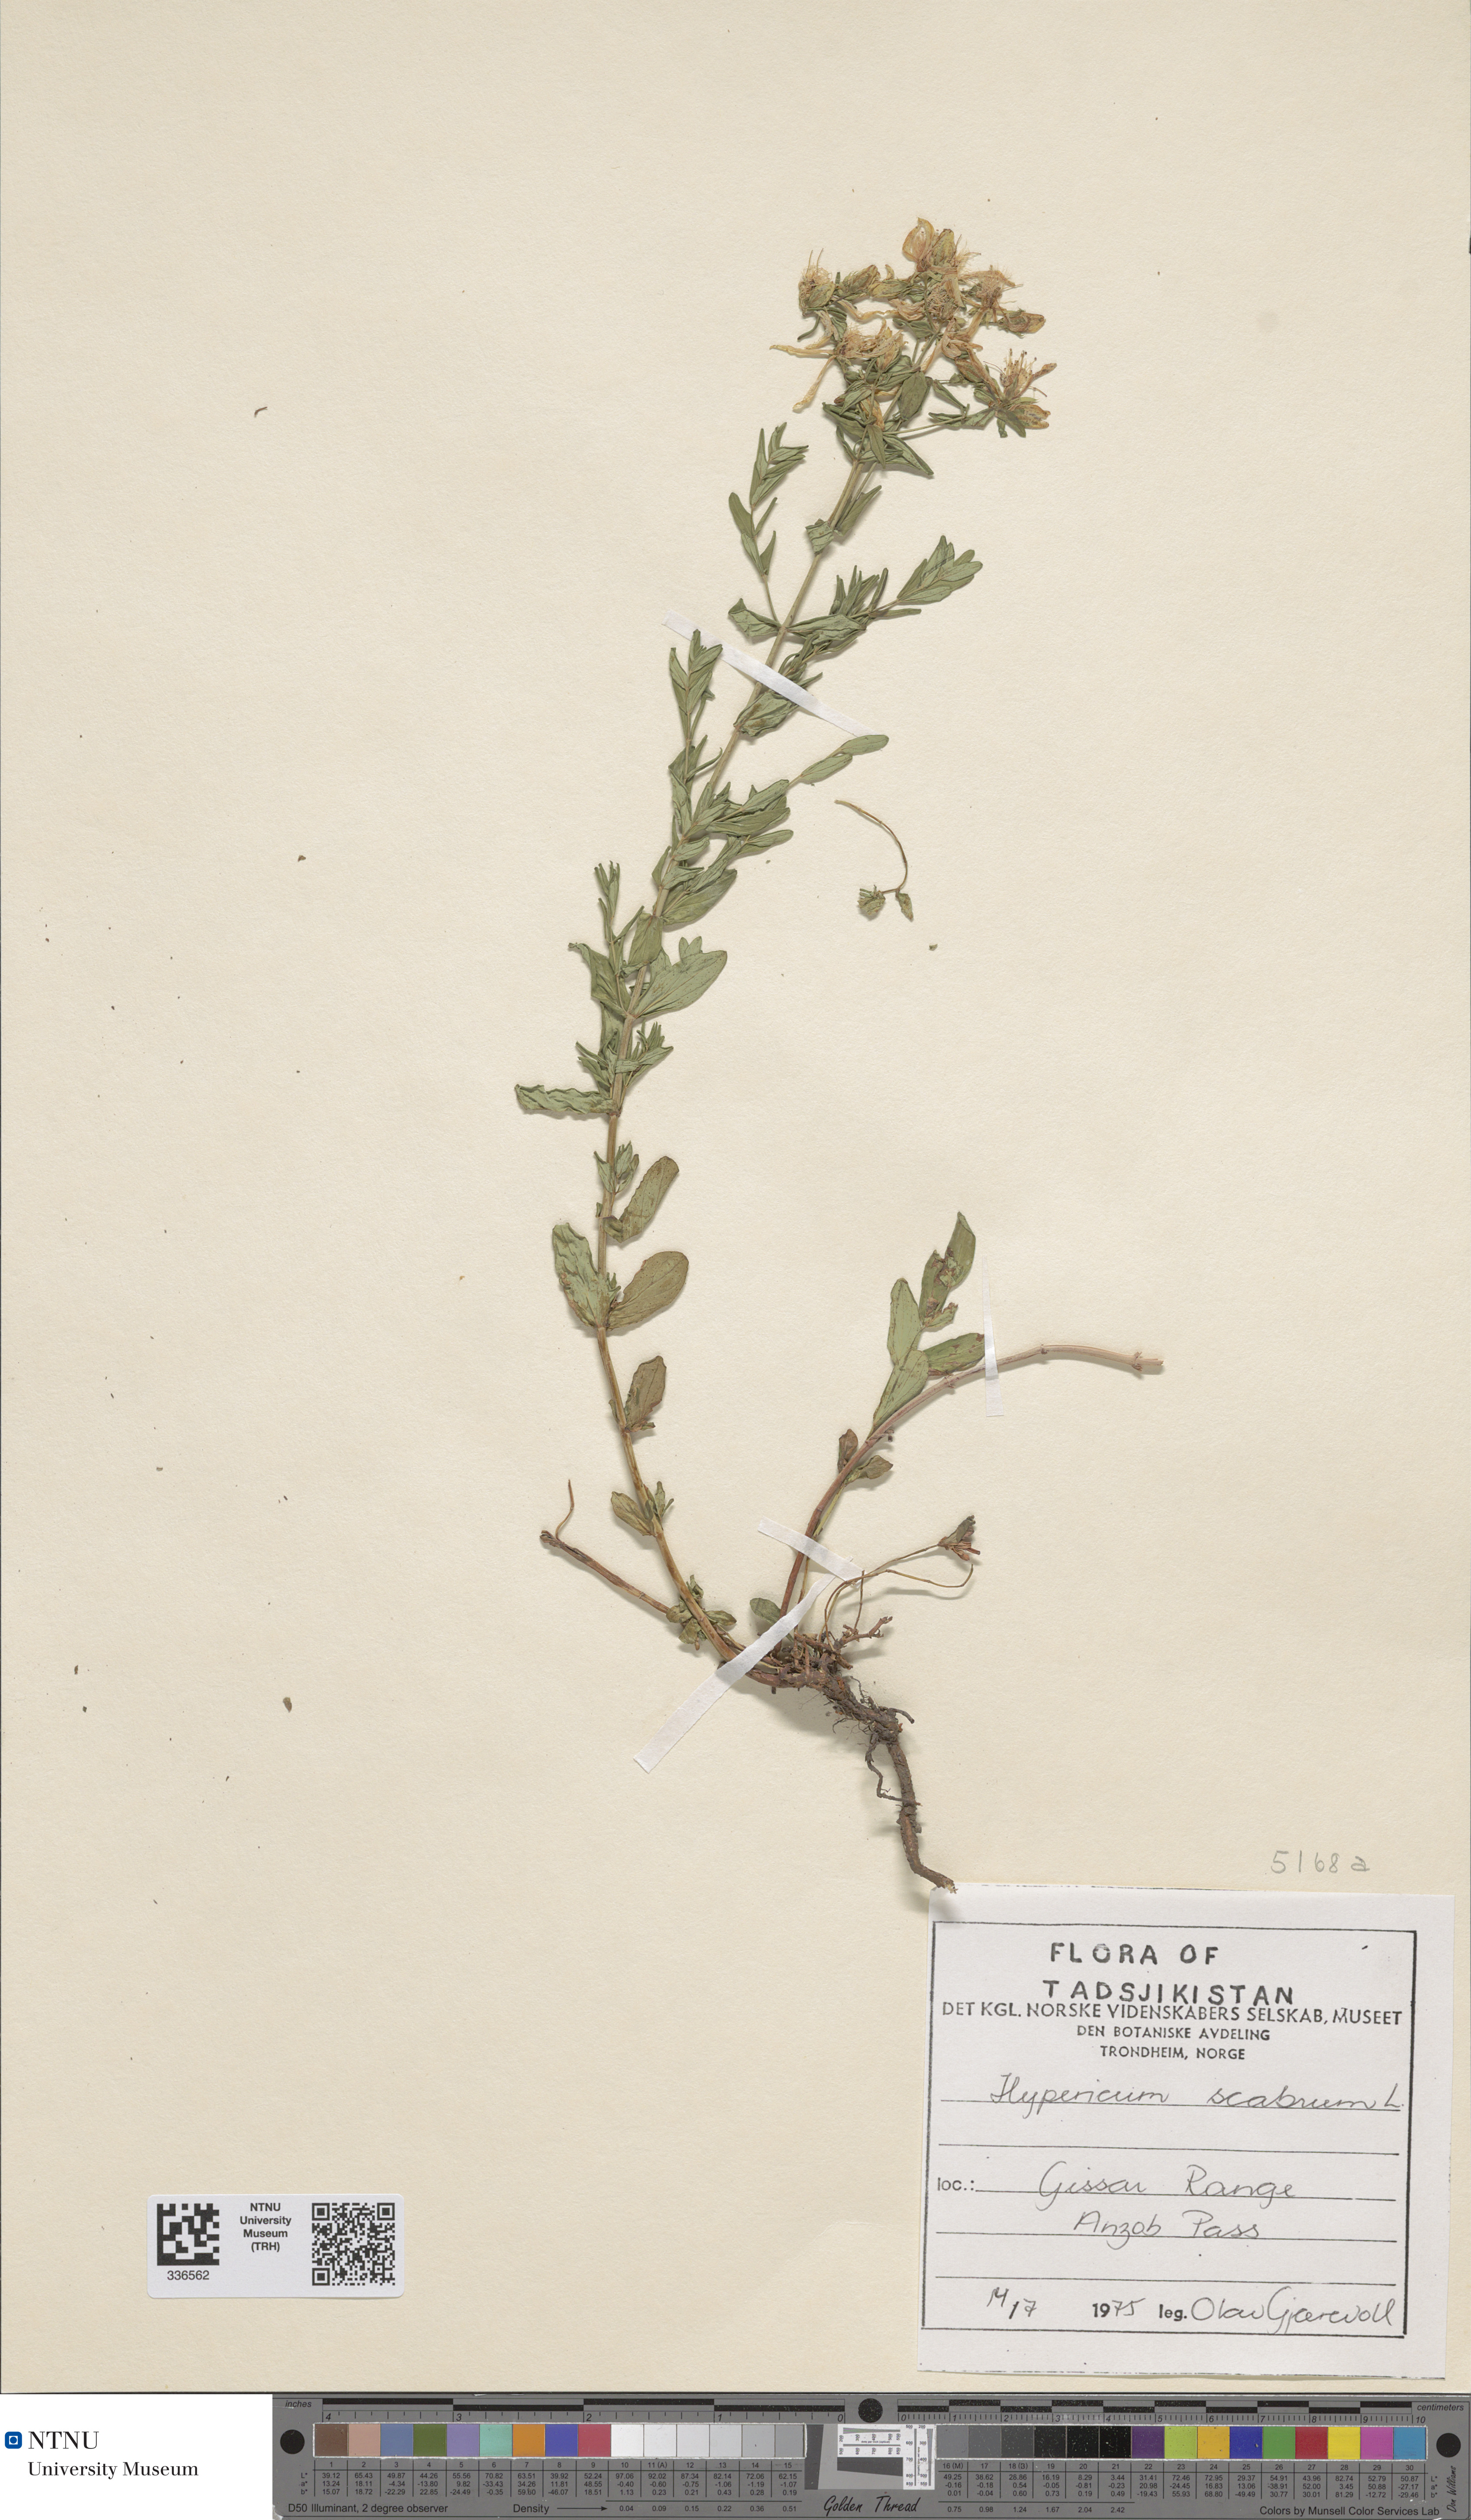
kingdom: Plantae
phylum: Tracheophyta
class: Magnoliopsida
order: Malpighiales
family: Hypericaceae
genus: Hypericum
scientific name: Hypericum scabrum
